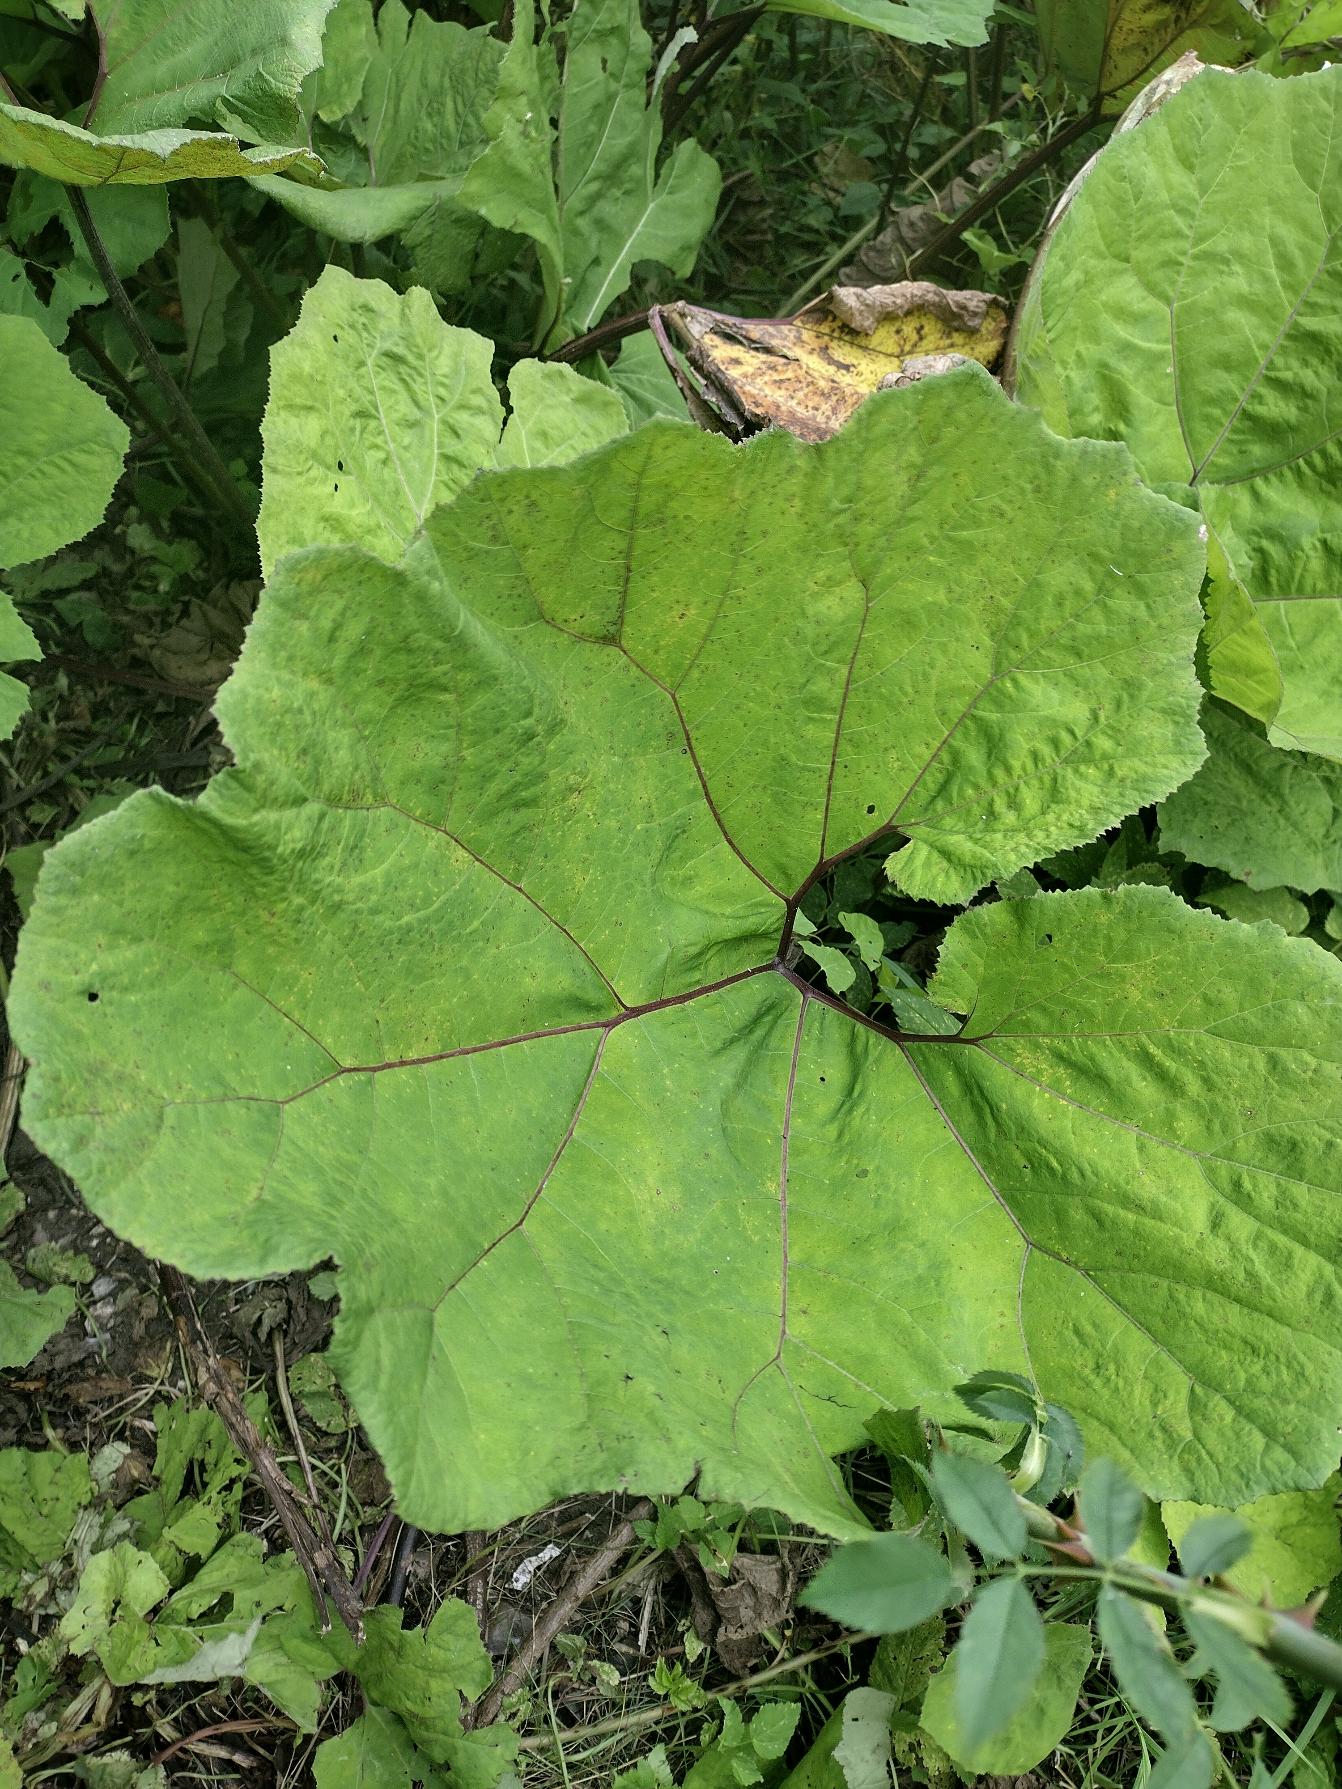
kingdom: Plantae
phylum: Tracheophyta
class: Magnoliopsida
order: Asterales
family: Asteraceae
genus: Petasites
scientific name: Petasites hybridus
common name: Rød hestehov
